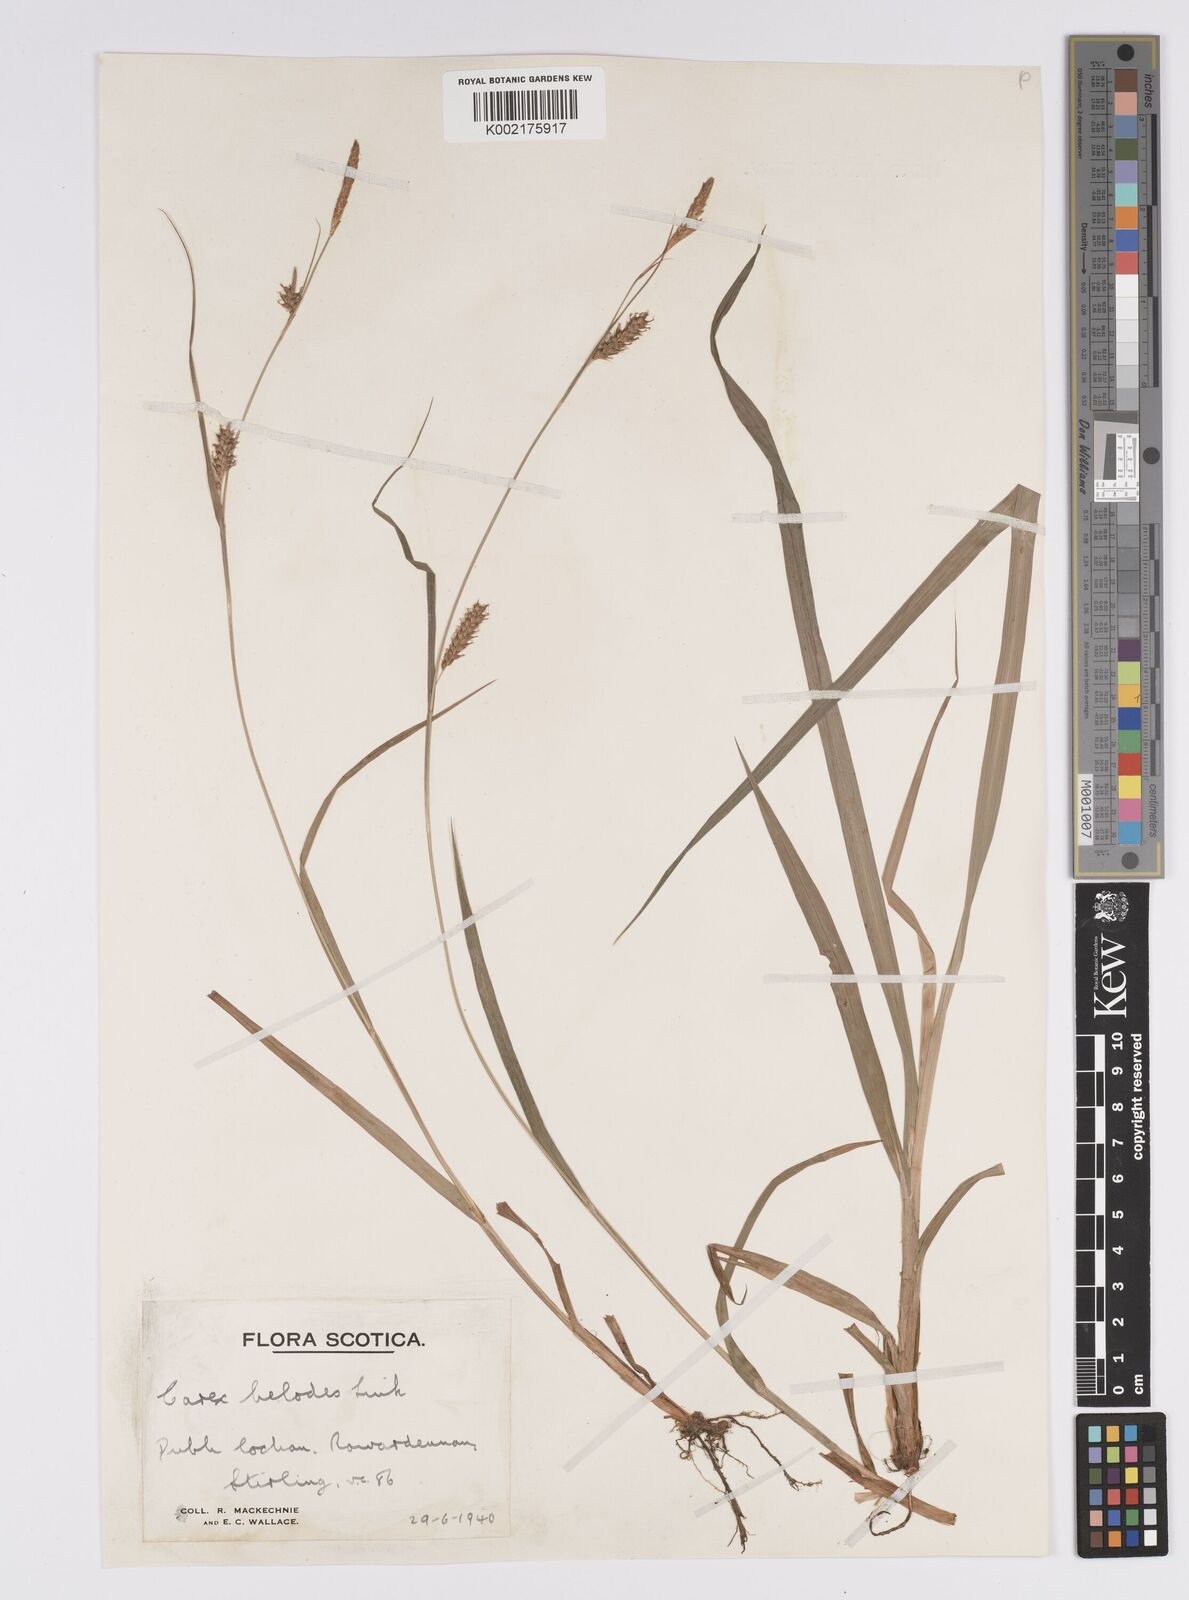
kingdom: Plantae
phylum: Tracheophyta
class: Liliopsida
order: Poales
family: Cyperaceae
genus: Carex
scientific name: Carex laevigata
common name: Smooth-stalked sedge
